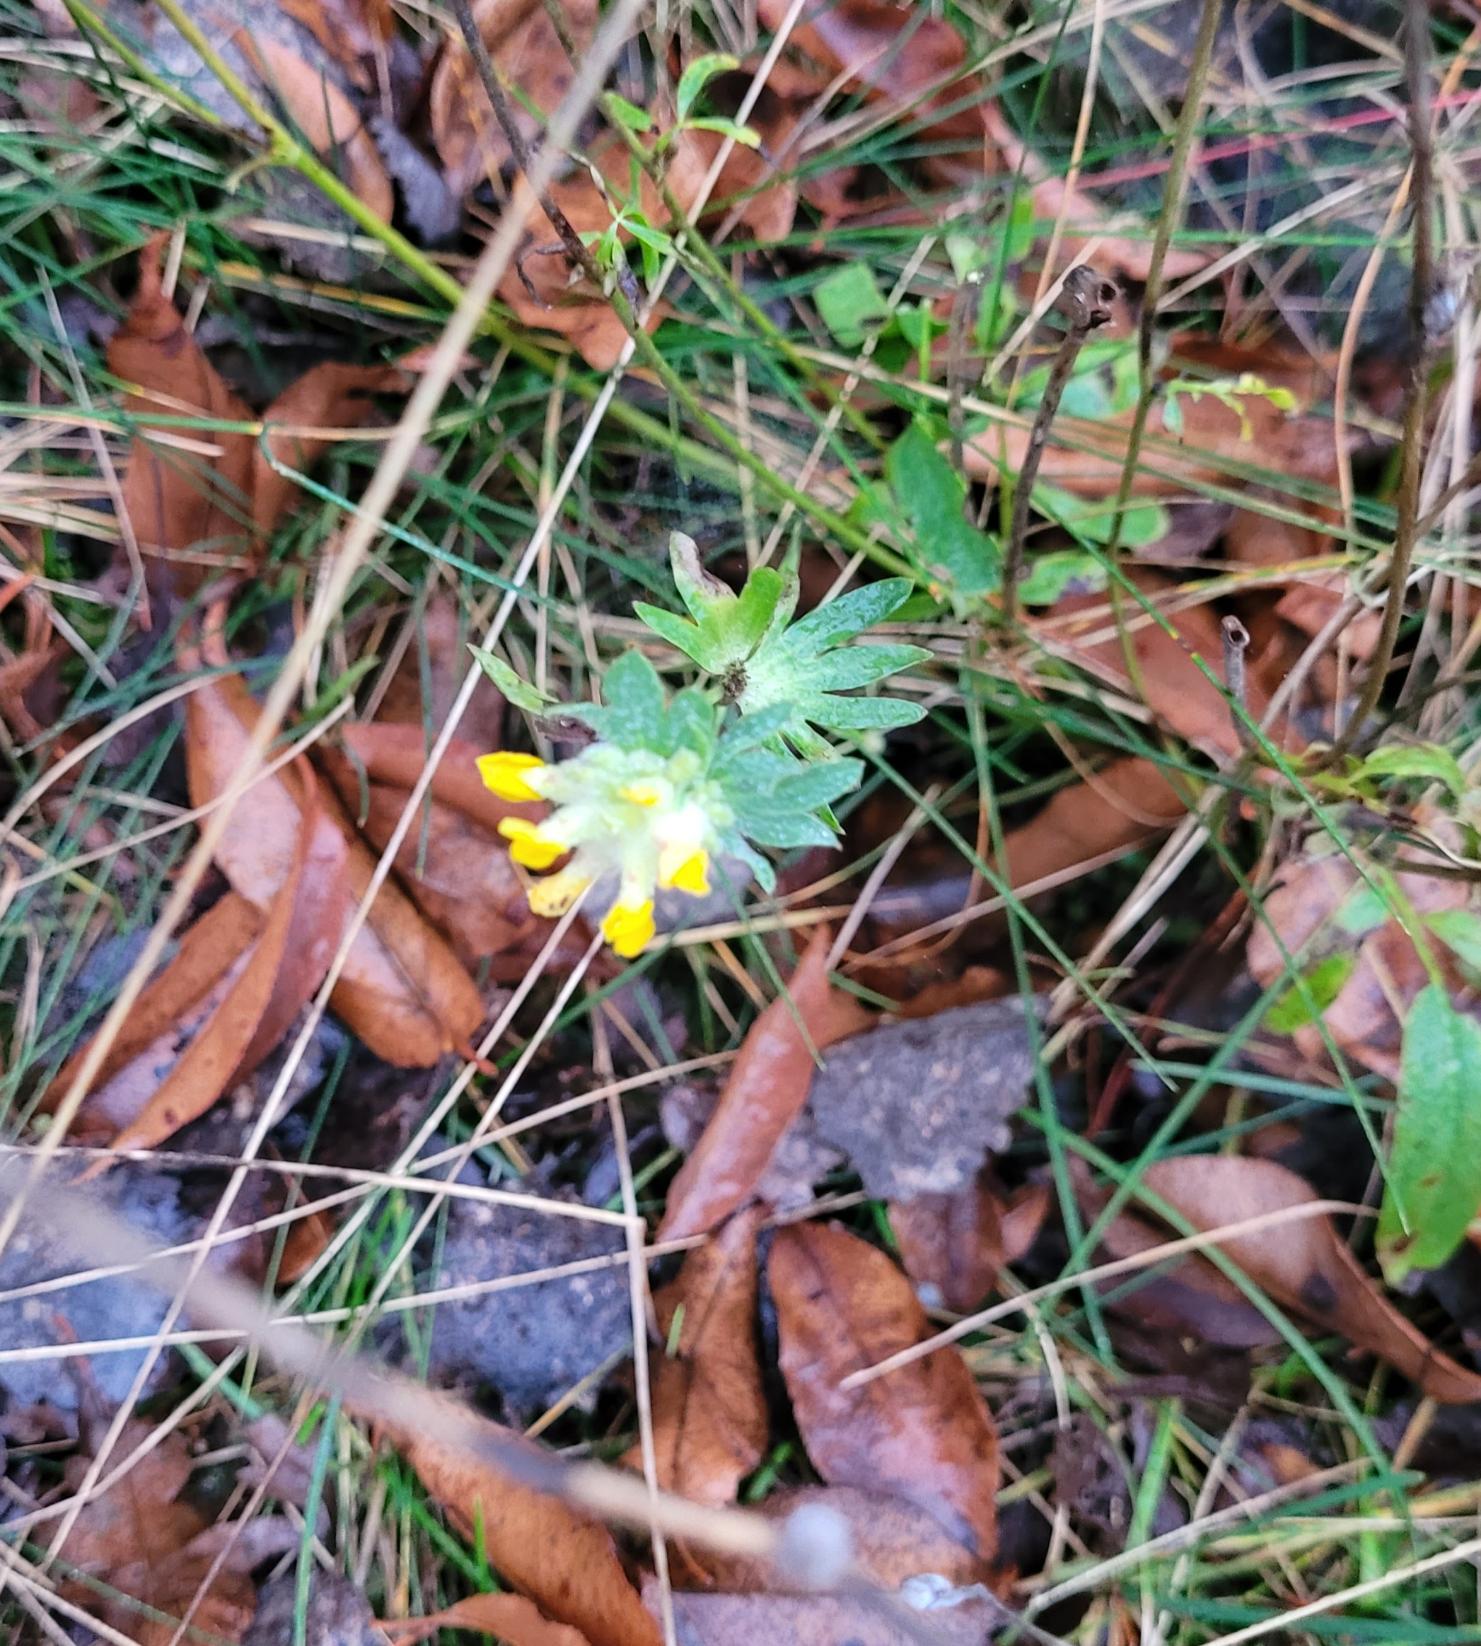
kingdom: Plantae
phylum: Tracheophyta
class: Magnoliopsida
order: Fabales
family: Fabaceae
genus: Anthyllis
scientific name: Anthyllis vulneraria
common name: Rundbælg
